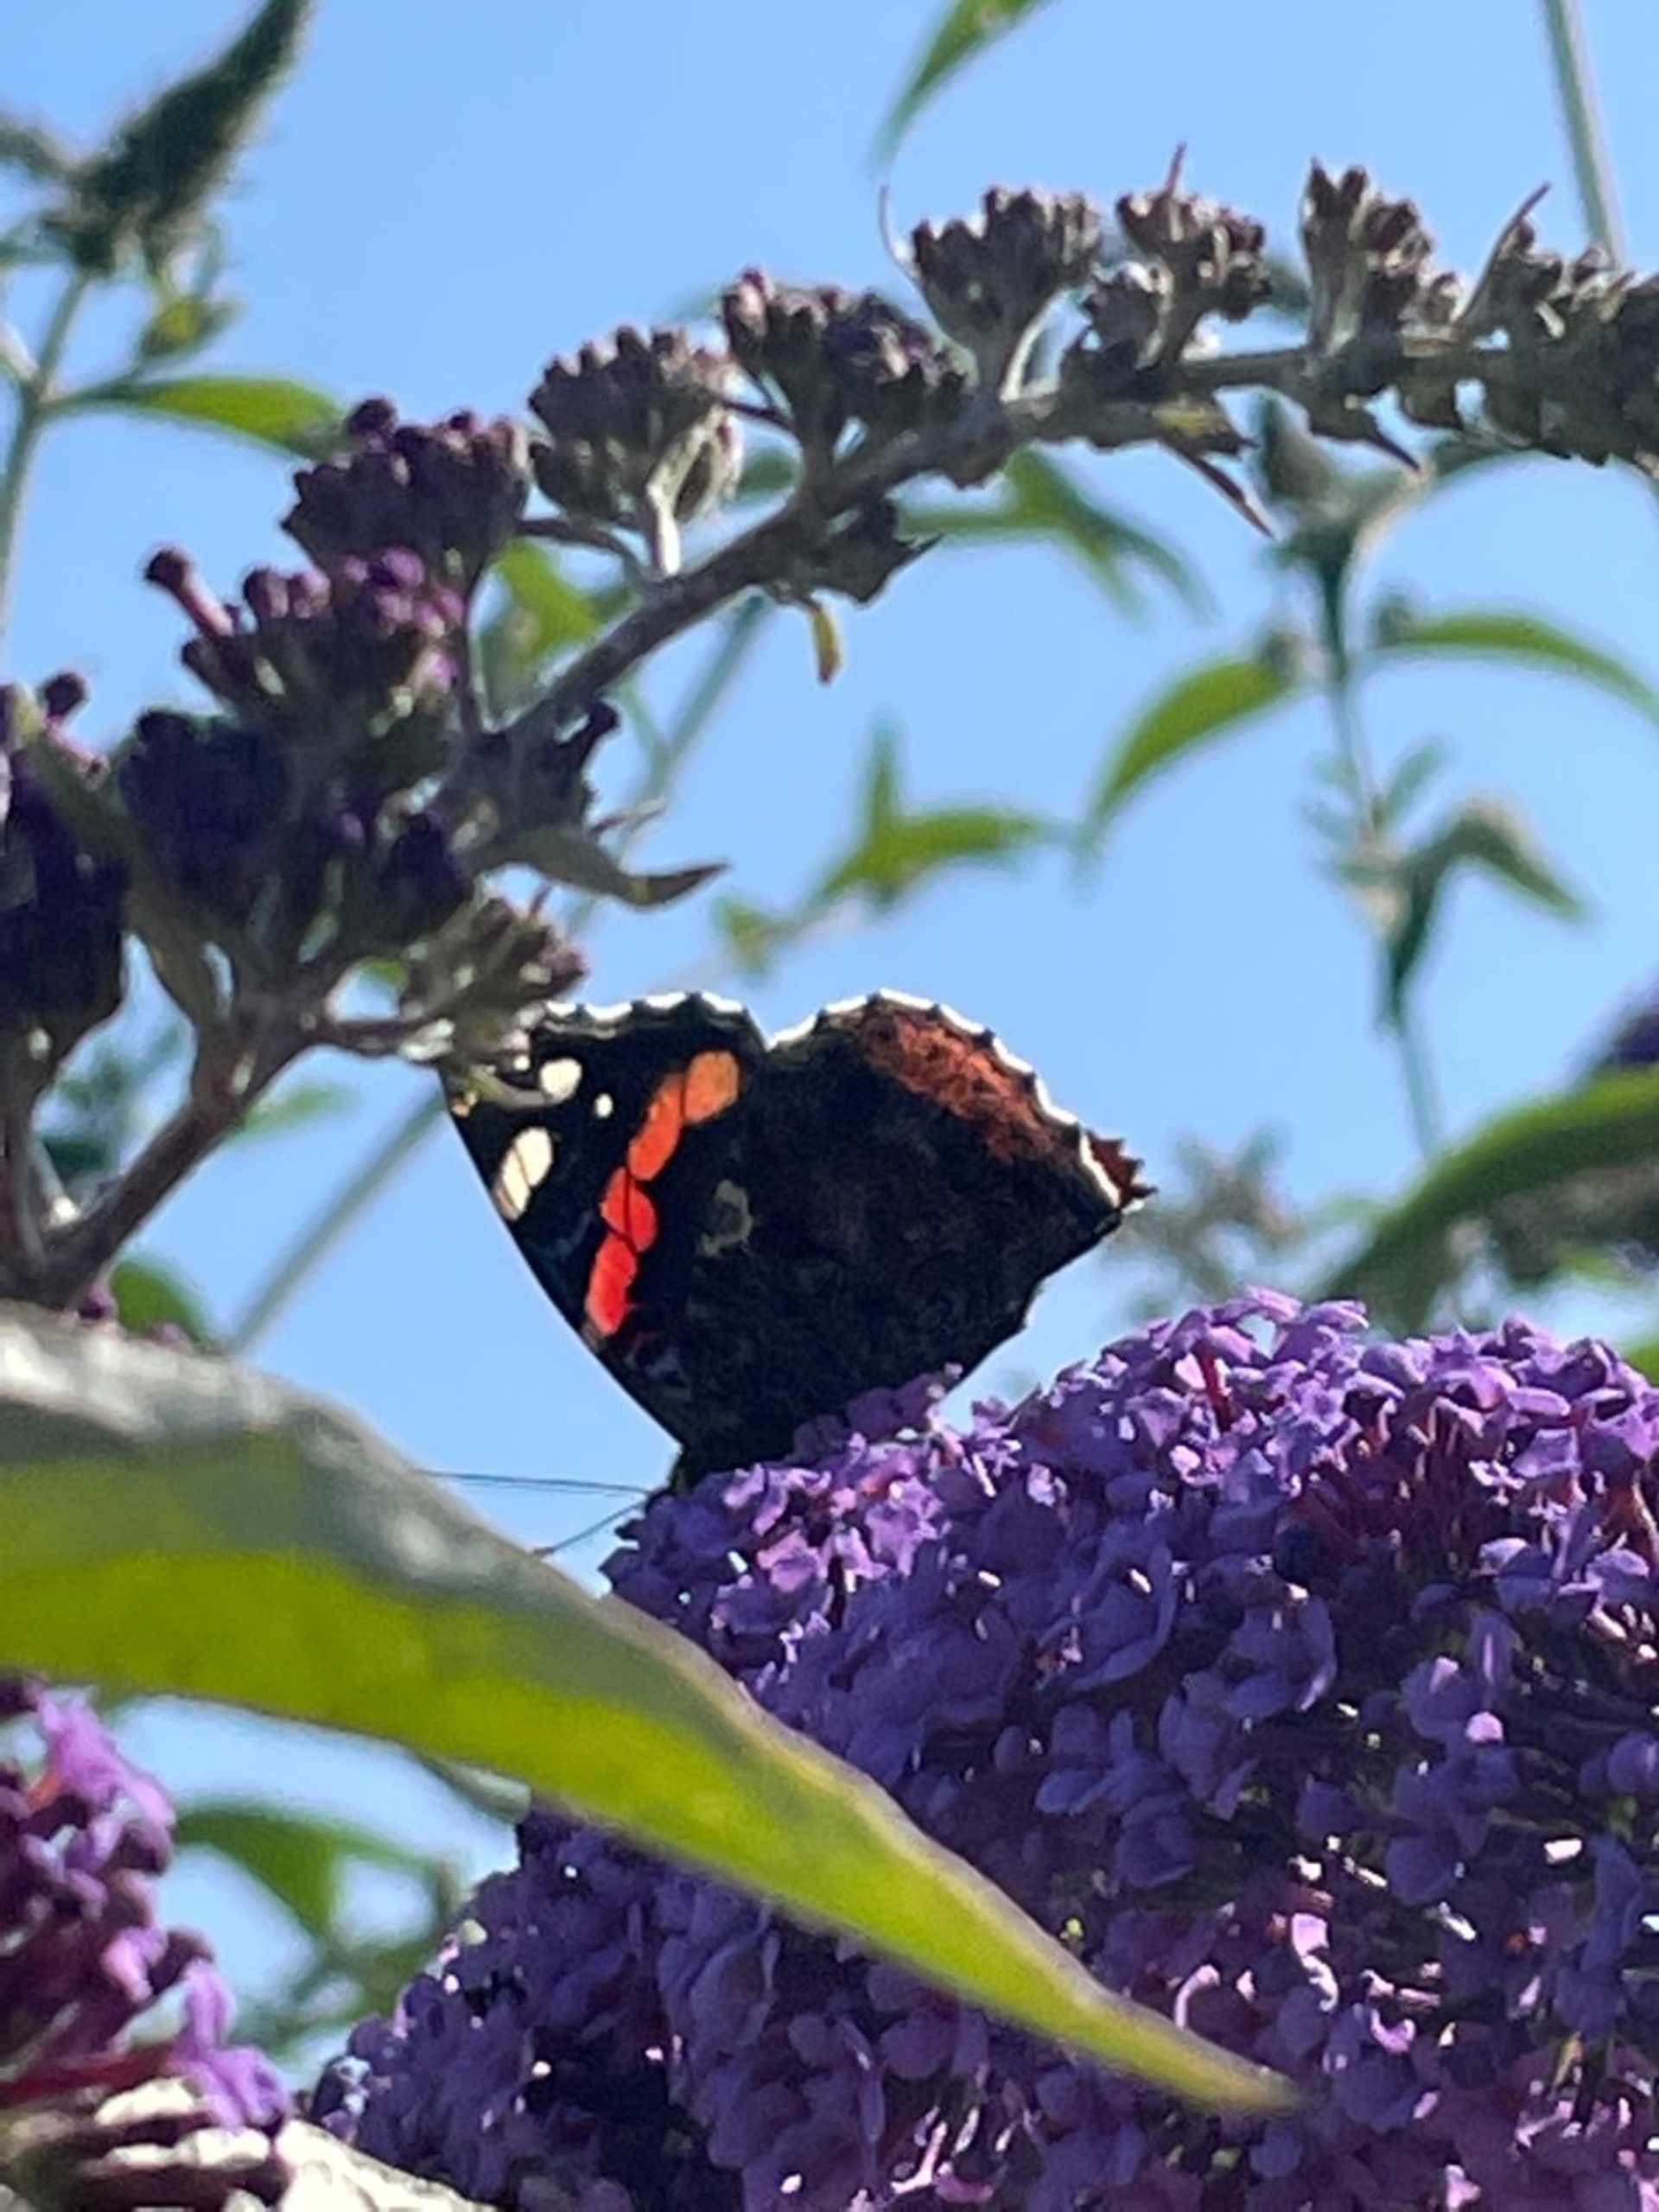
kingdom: Animalia
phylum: Arthropoda
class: Insecta
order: Lepidoptera
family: Nymphalidae
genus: Vanessa
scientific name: Vanessa atalanta
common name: Admiral
